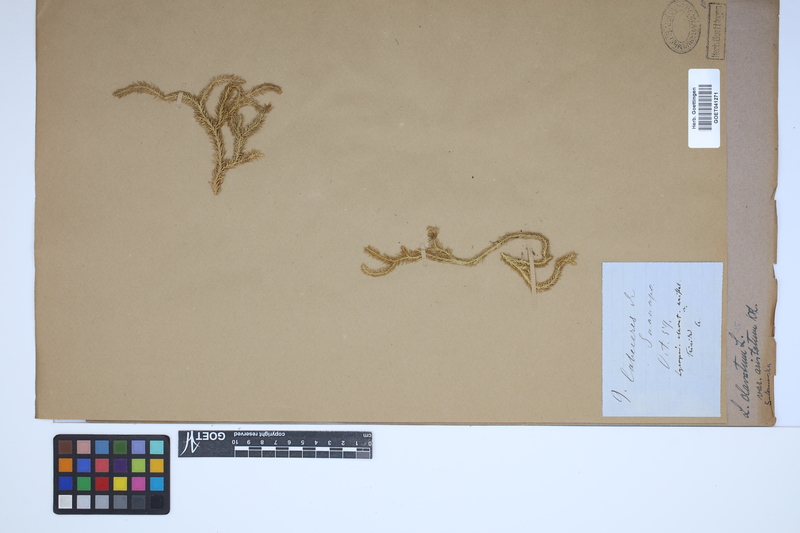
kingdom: Plantae
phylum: Tracheophyta
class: Lycopodiopsida
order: Lycopodiales
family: Lycopodiaceae
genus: Lycopodium
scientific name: Lycopodium clavatum
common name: Stag's-horn clubmoss
